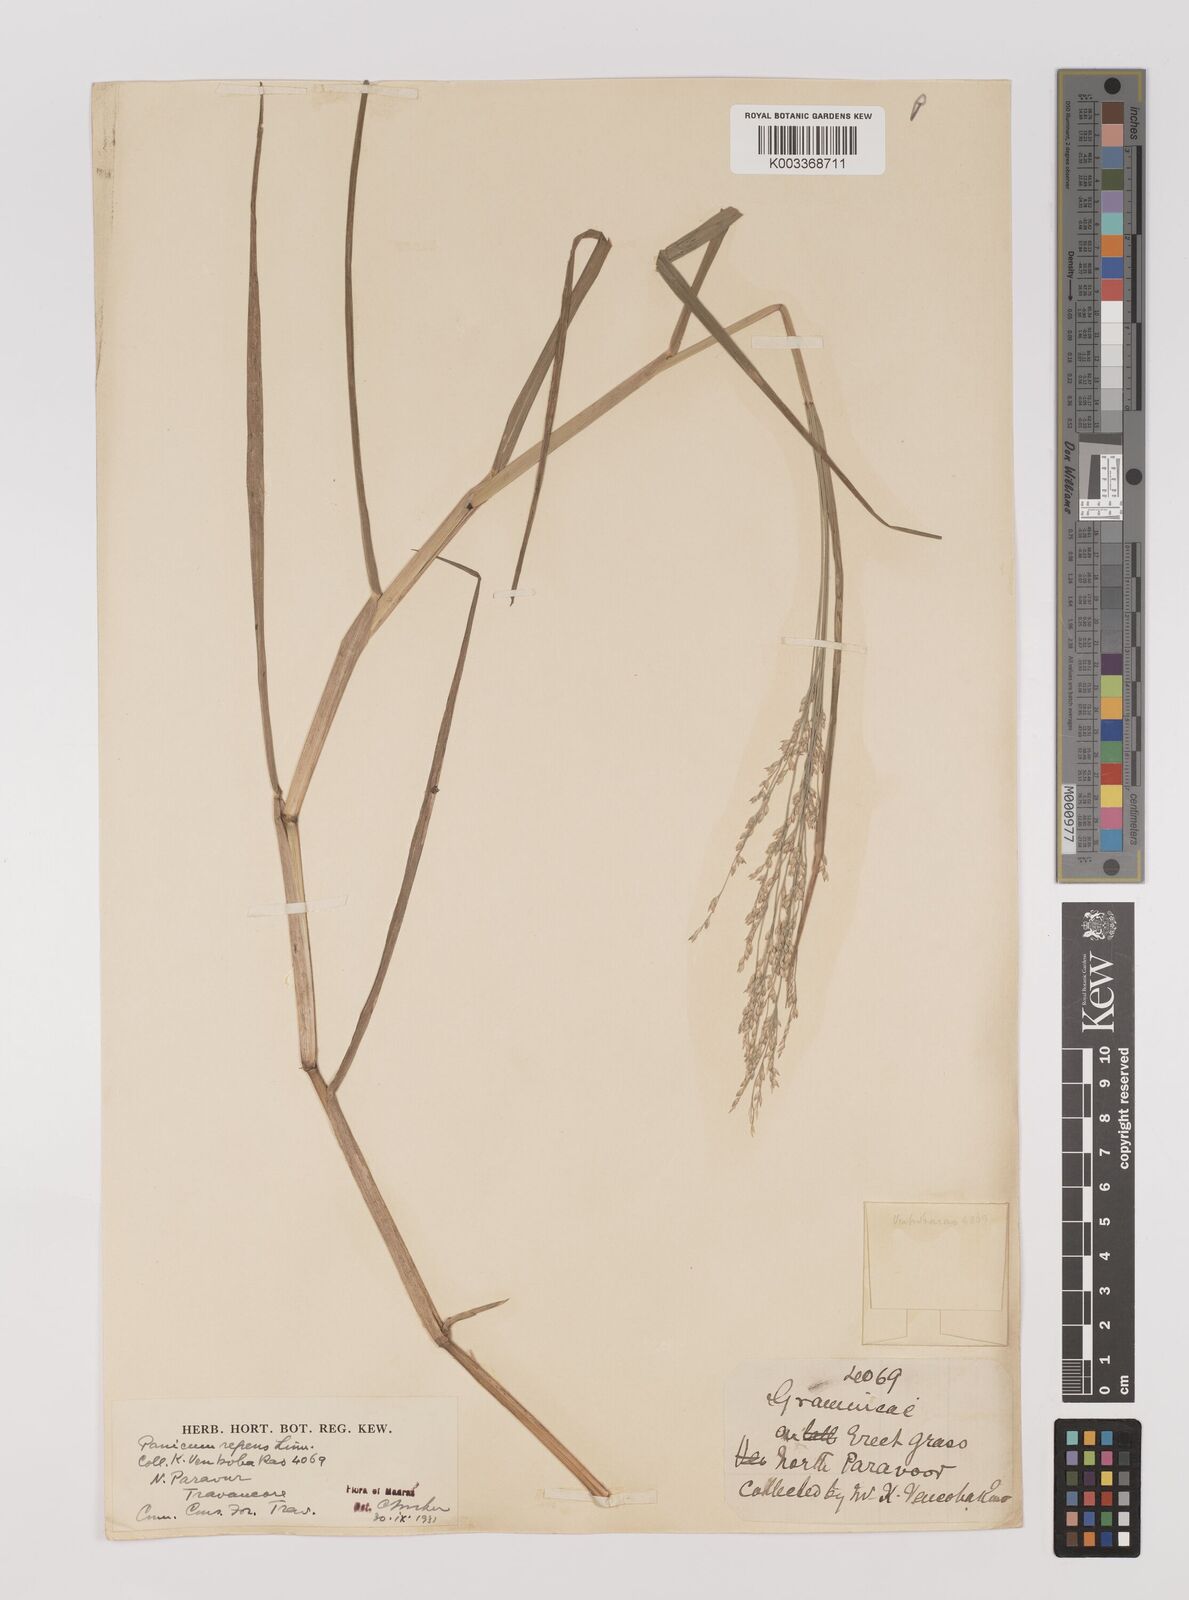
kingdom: Plantae
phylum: Tracheophyta
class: Liliopsida
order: Poales
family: Poaceae
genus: Panicum
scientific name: Panicum repens
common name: Torpedo grass
